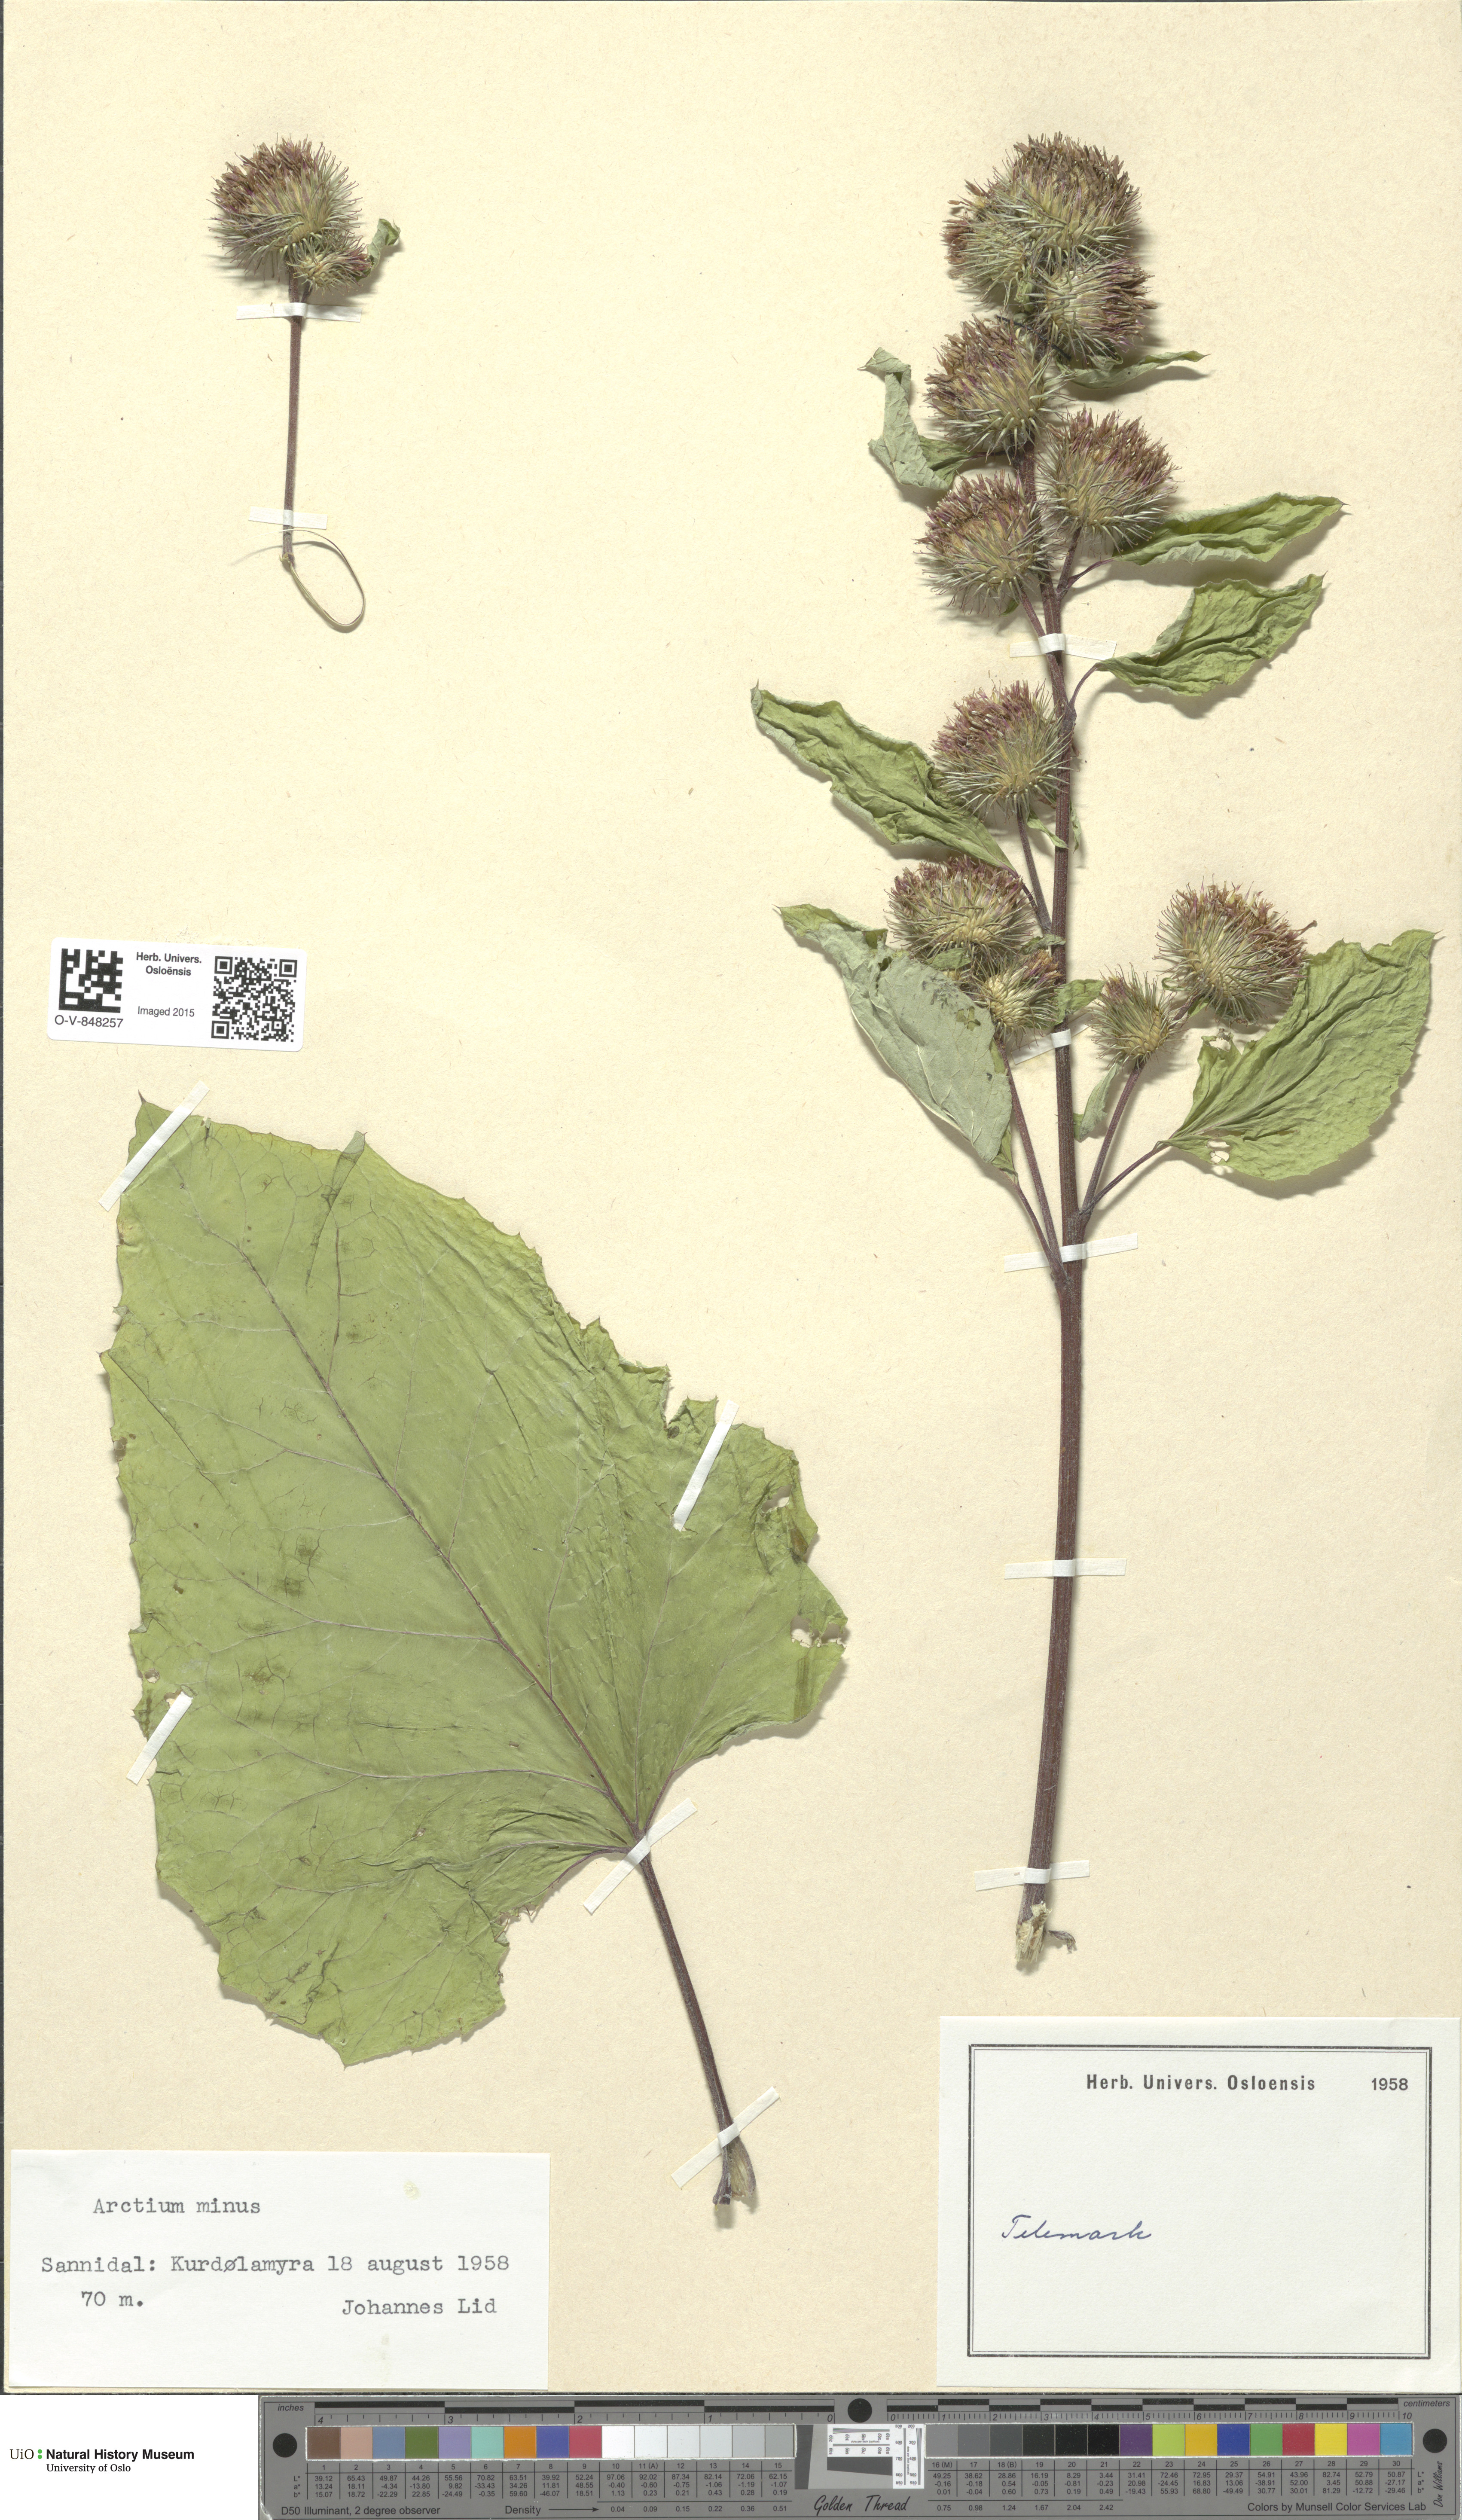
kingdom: Plantae
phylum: Tracheophyta
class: Magnoliopsida
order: Asterales
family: Asteraceae
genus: Arctium
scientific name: Arctium minus
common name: Lesser burdock
